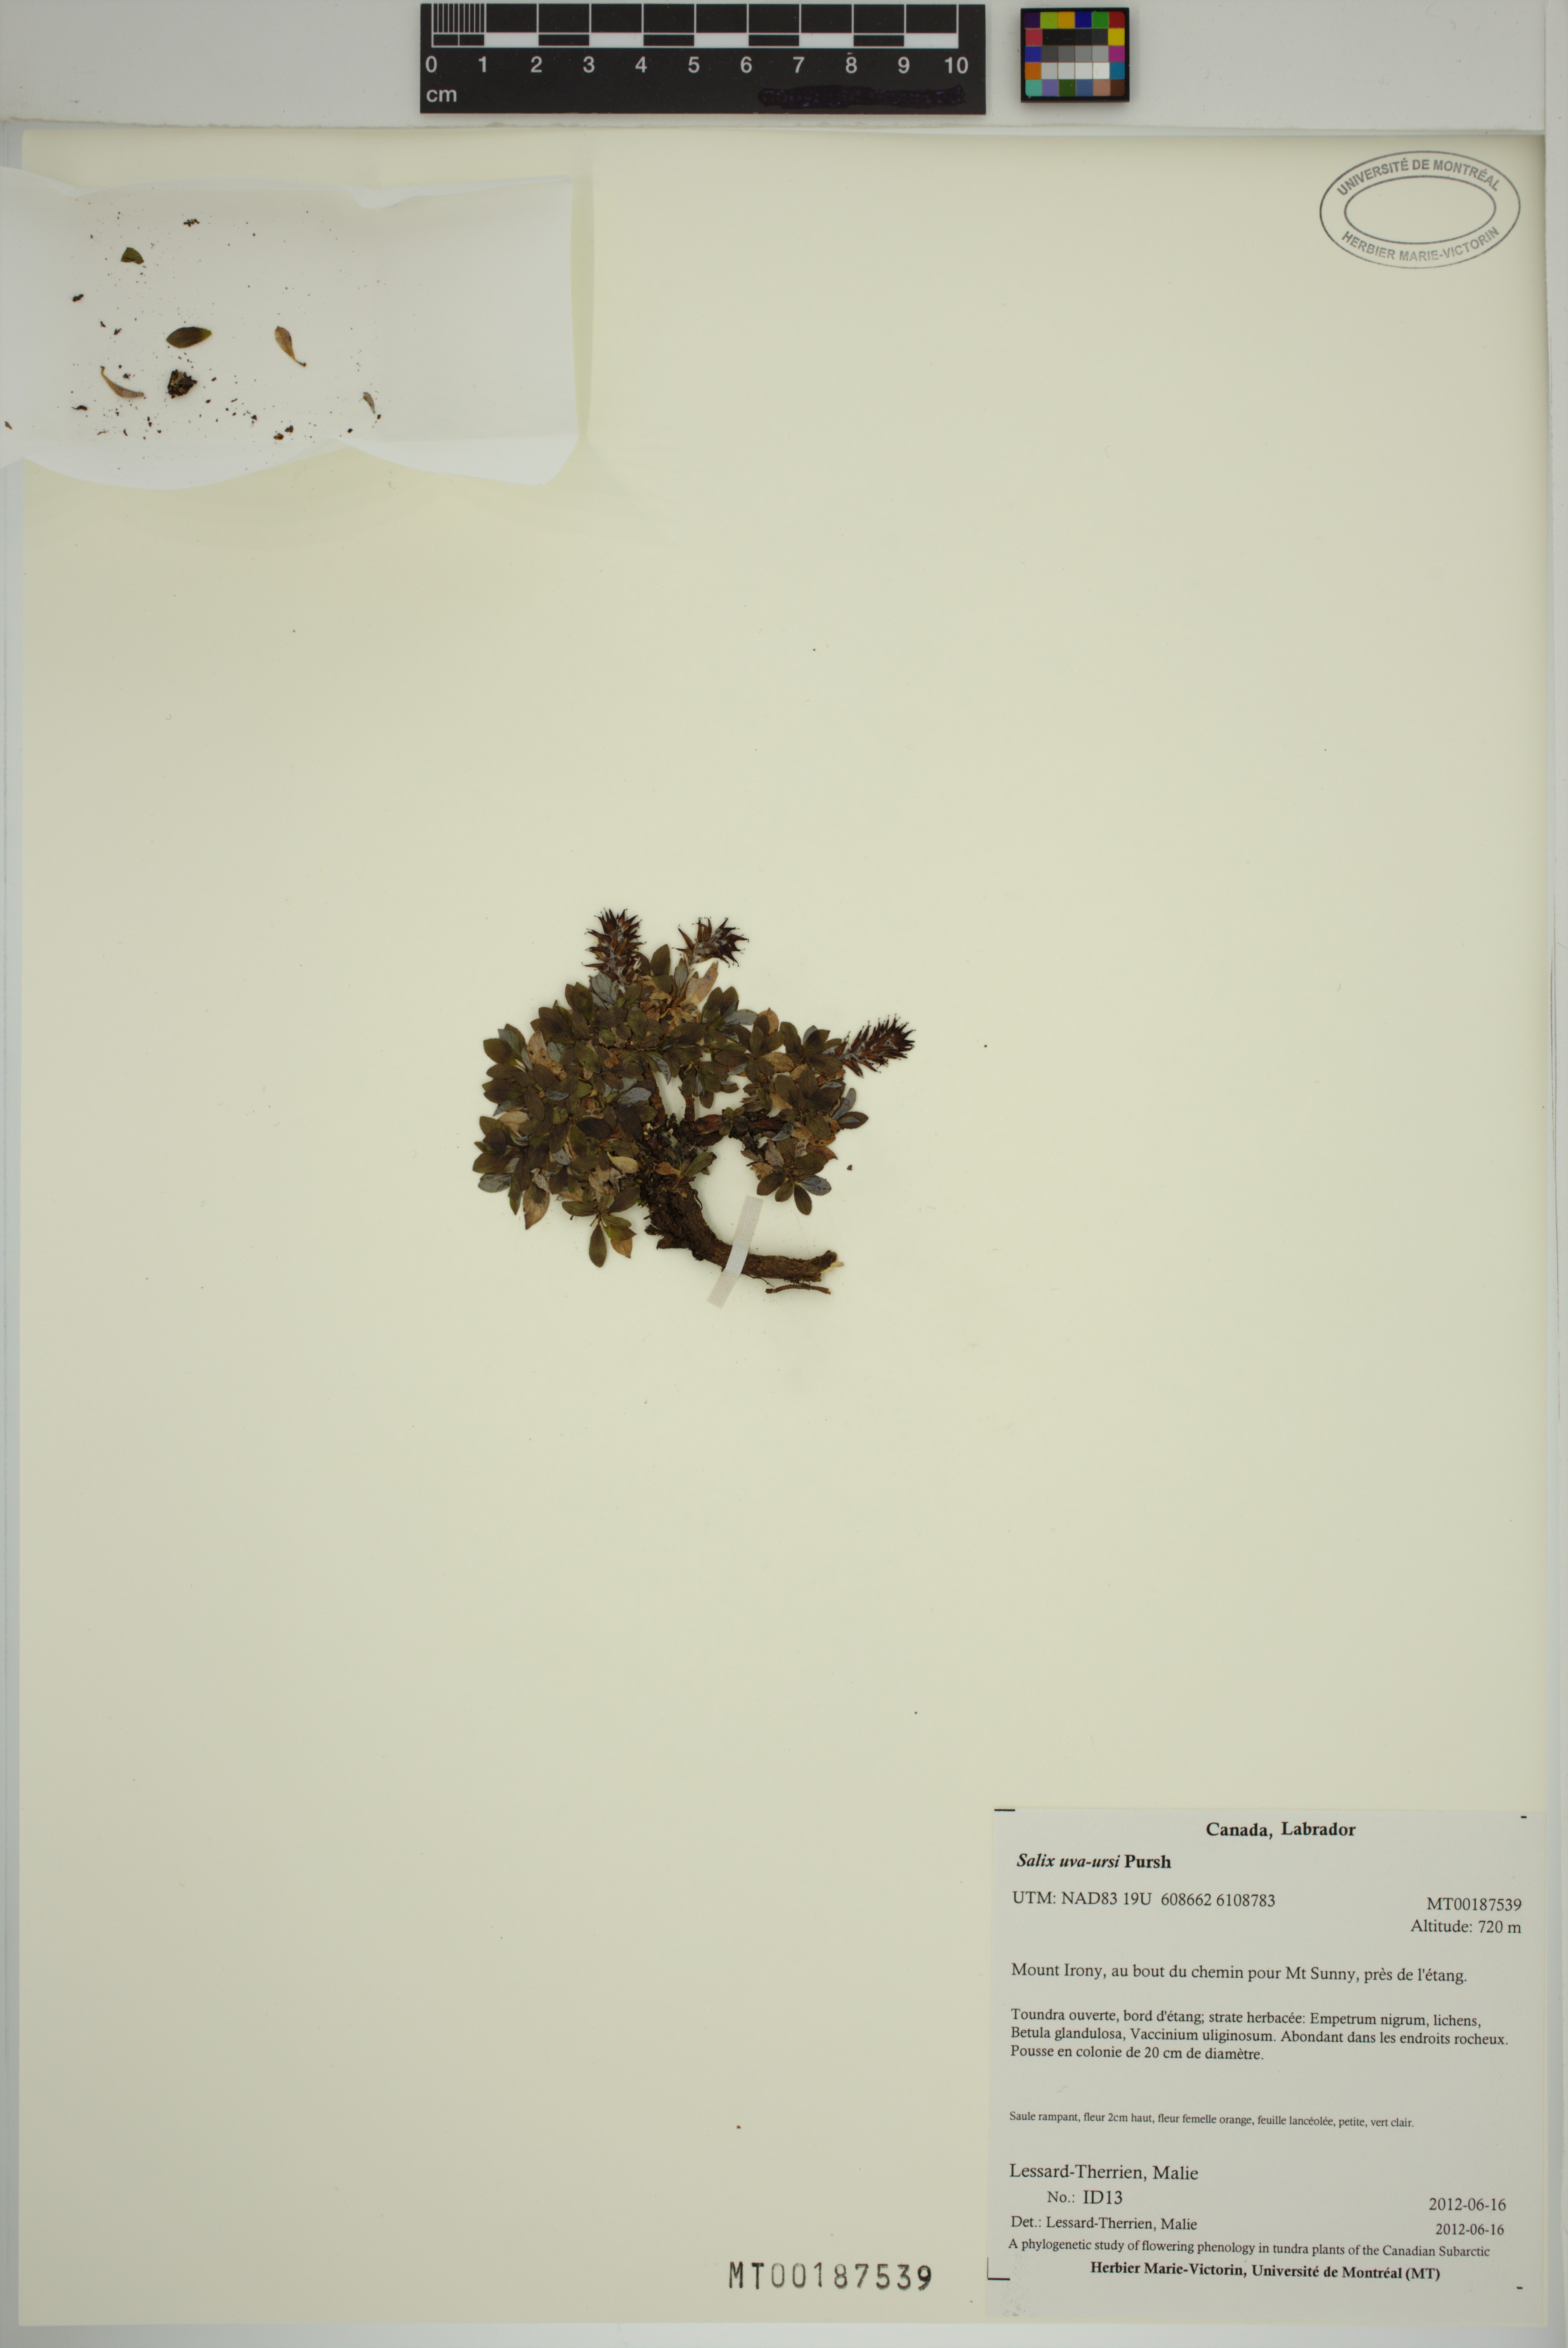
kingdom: Plantae
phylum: Tracheophyta
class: Magnoliopsida
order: Malpighiales
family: Salicaceae
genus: Salix
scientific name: Salix uva-ursi
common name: Bearberry willow
